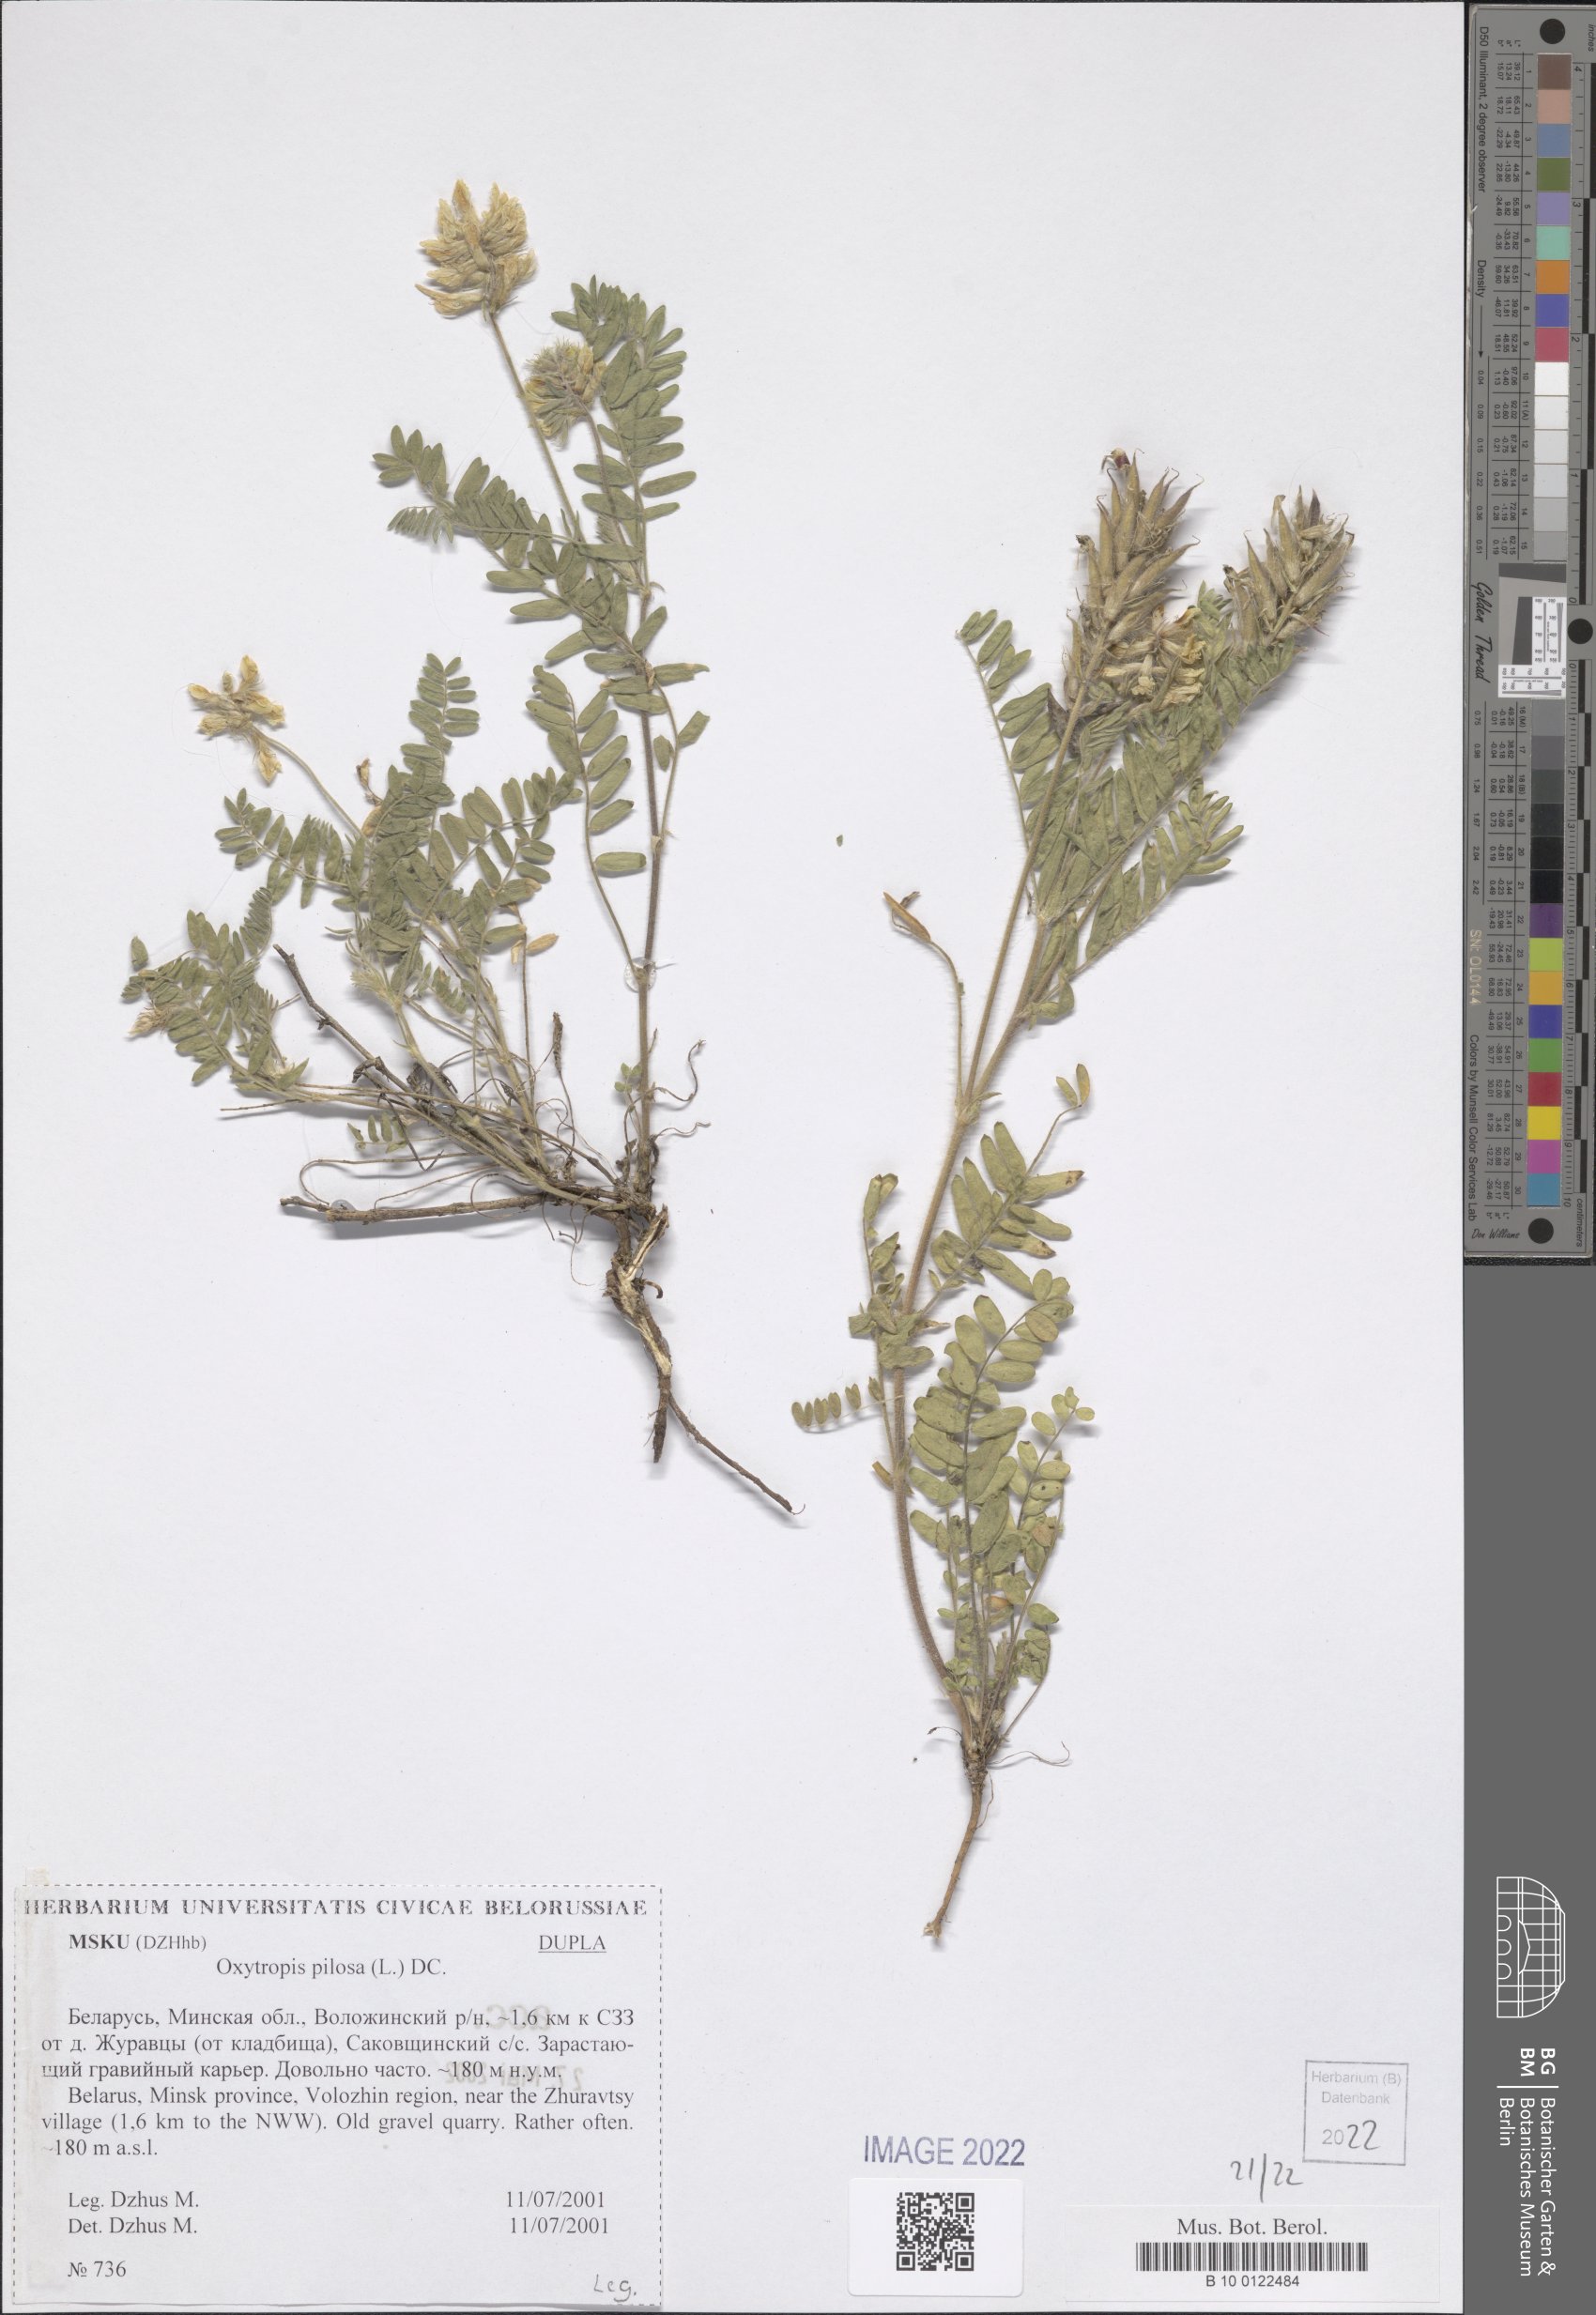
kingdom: Plantae
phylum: Tracheophyta
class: Magnoliopsida
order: Fabales
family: Fabaceae
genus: Oxytropis
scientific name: Oxytropis pilosa
